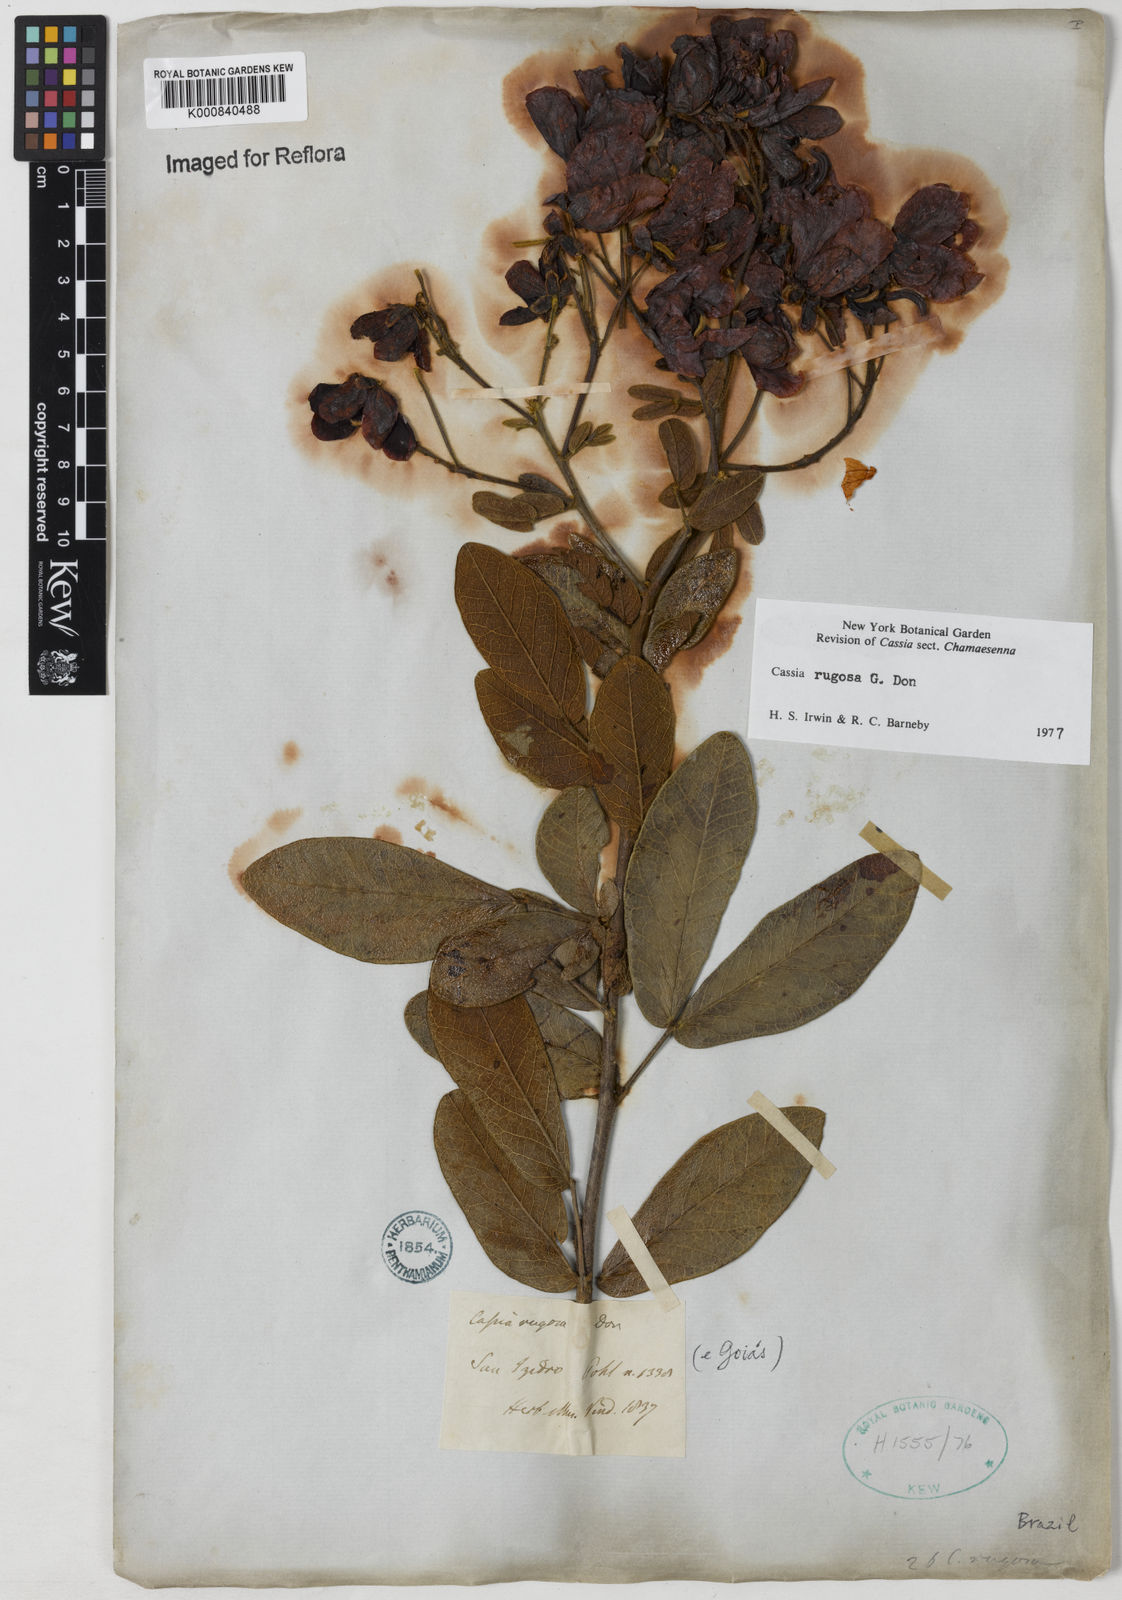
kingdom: Plantae
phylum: Tracheophyta
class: Magnoliopsida
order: Fabales
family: Fabaceae
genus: Senna
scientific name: Senna rugosa
